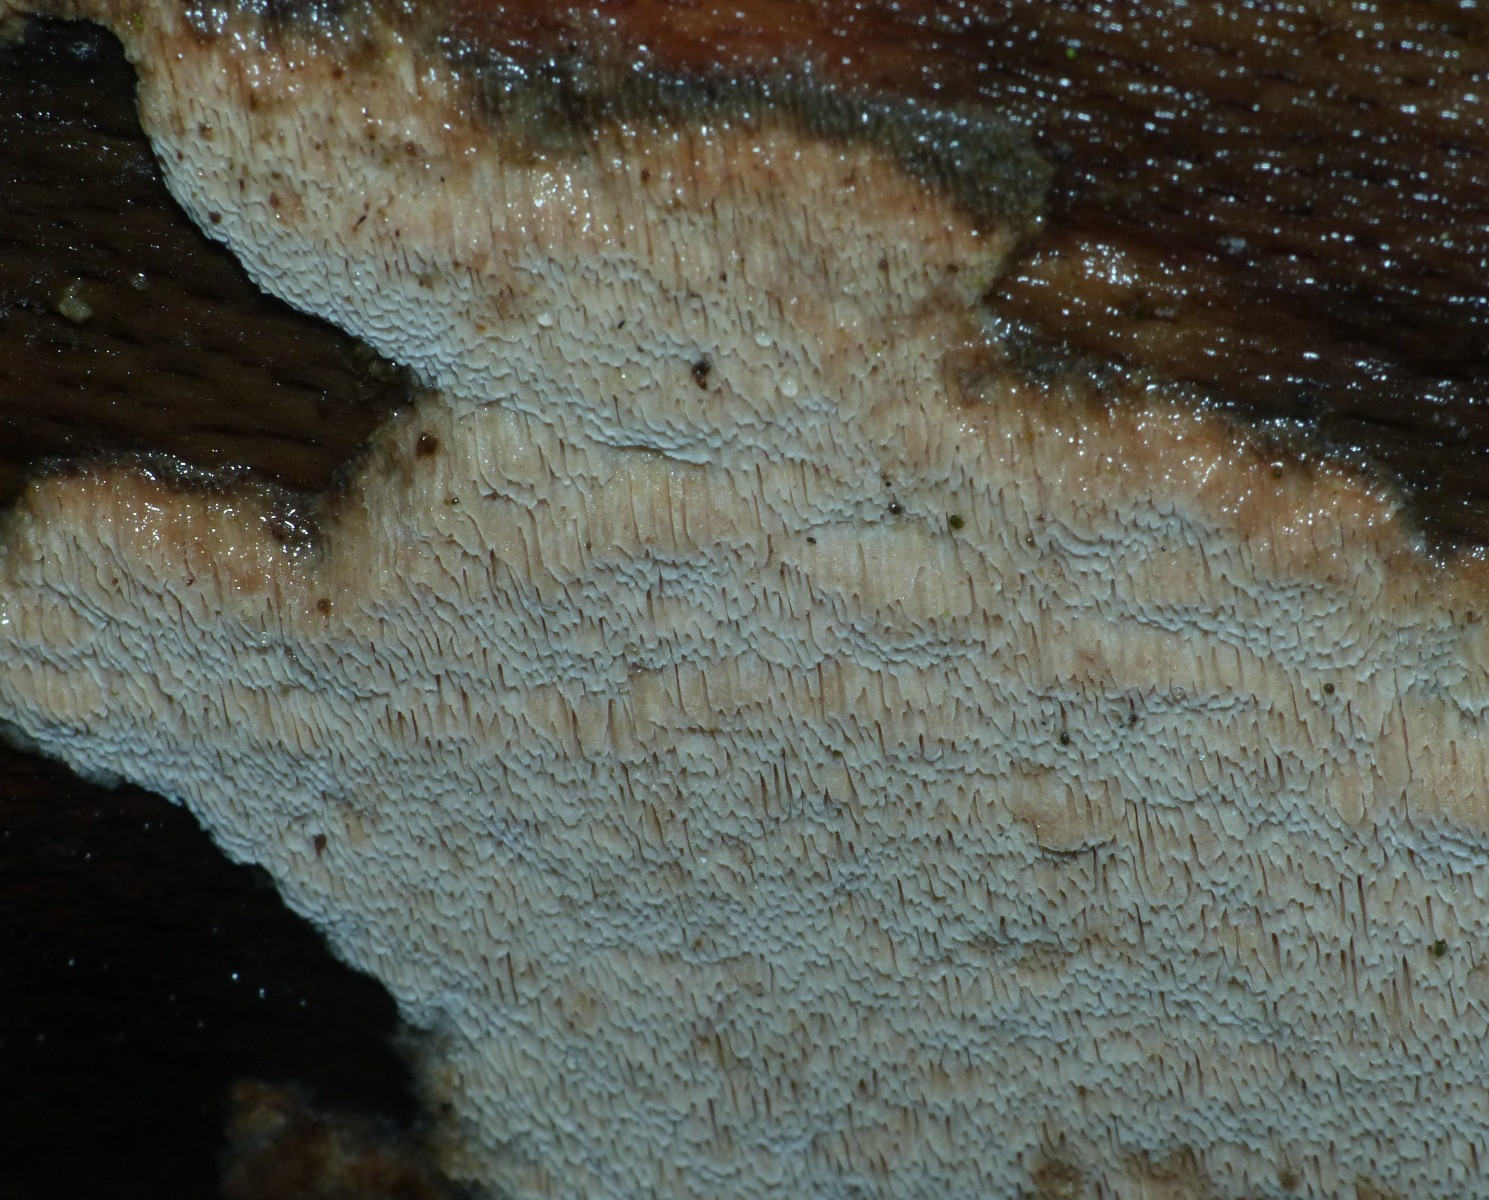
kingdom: Fungi
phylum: Basidiomycota
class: Agaricomycetes
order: Polyporales
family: Meruliaceae
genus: Mycoacia
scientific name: Mycoacia gilvescens
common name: rosa pastelporesvamp
